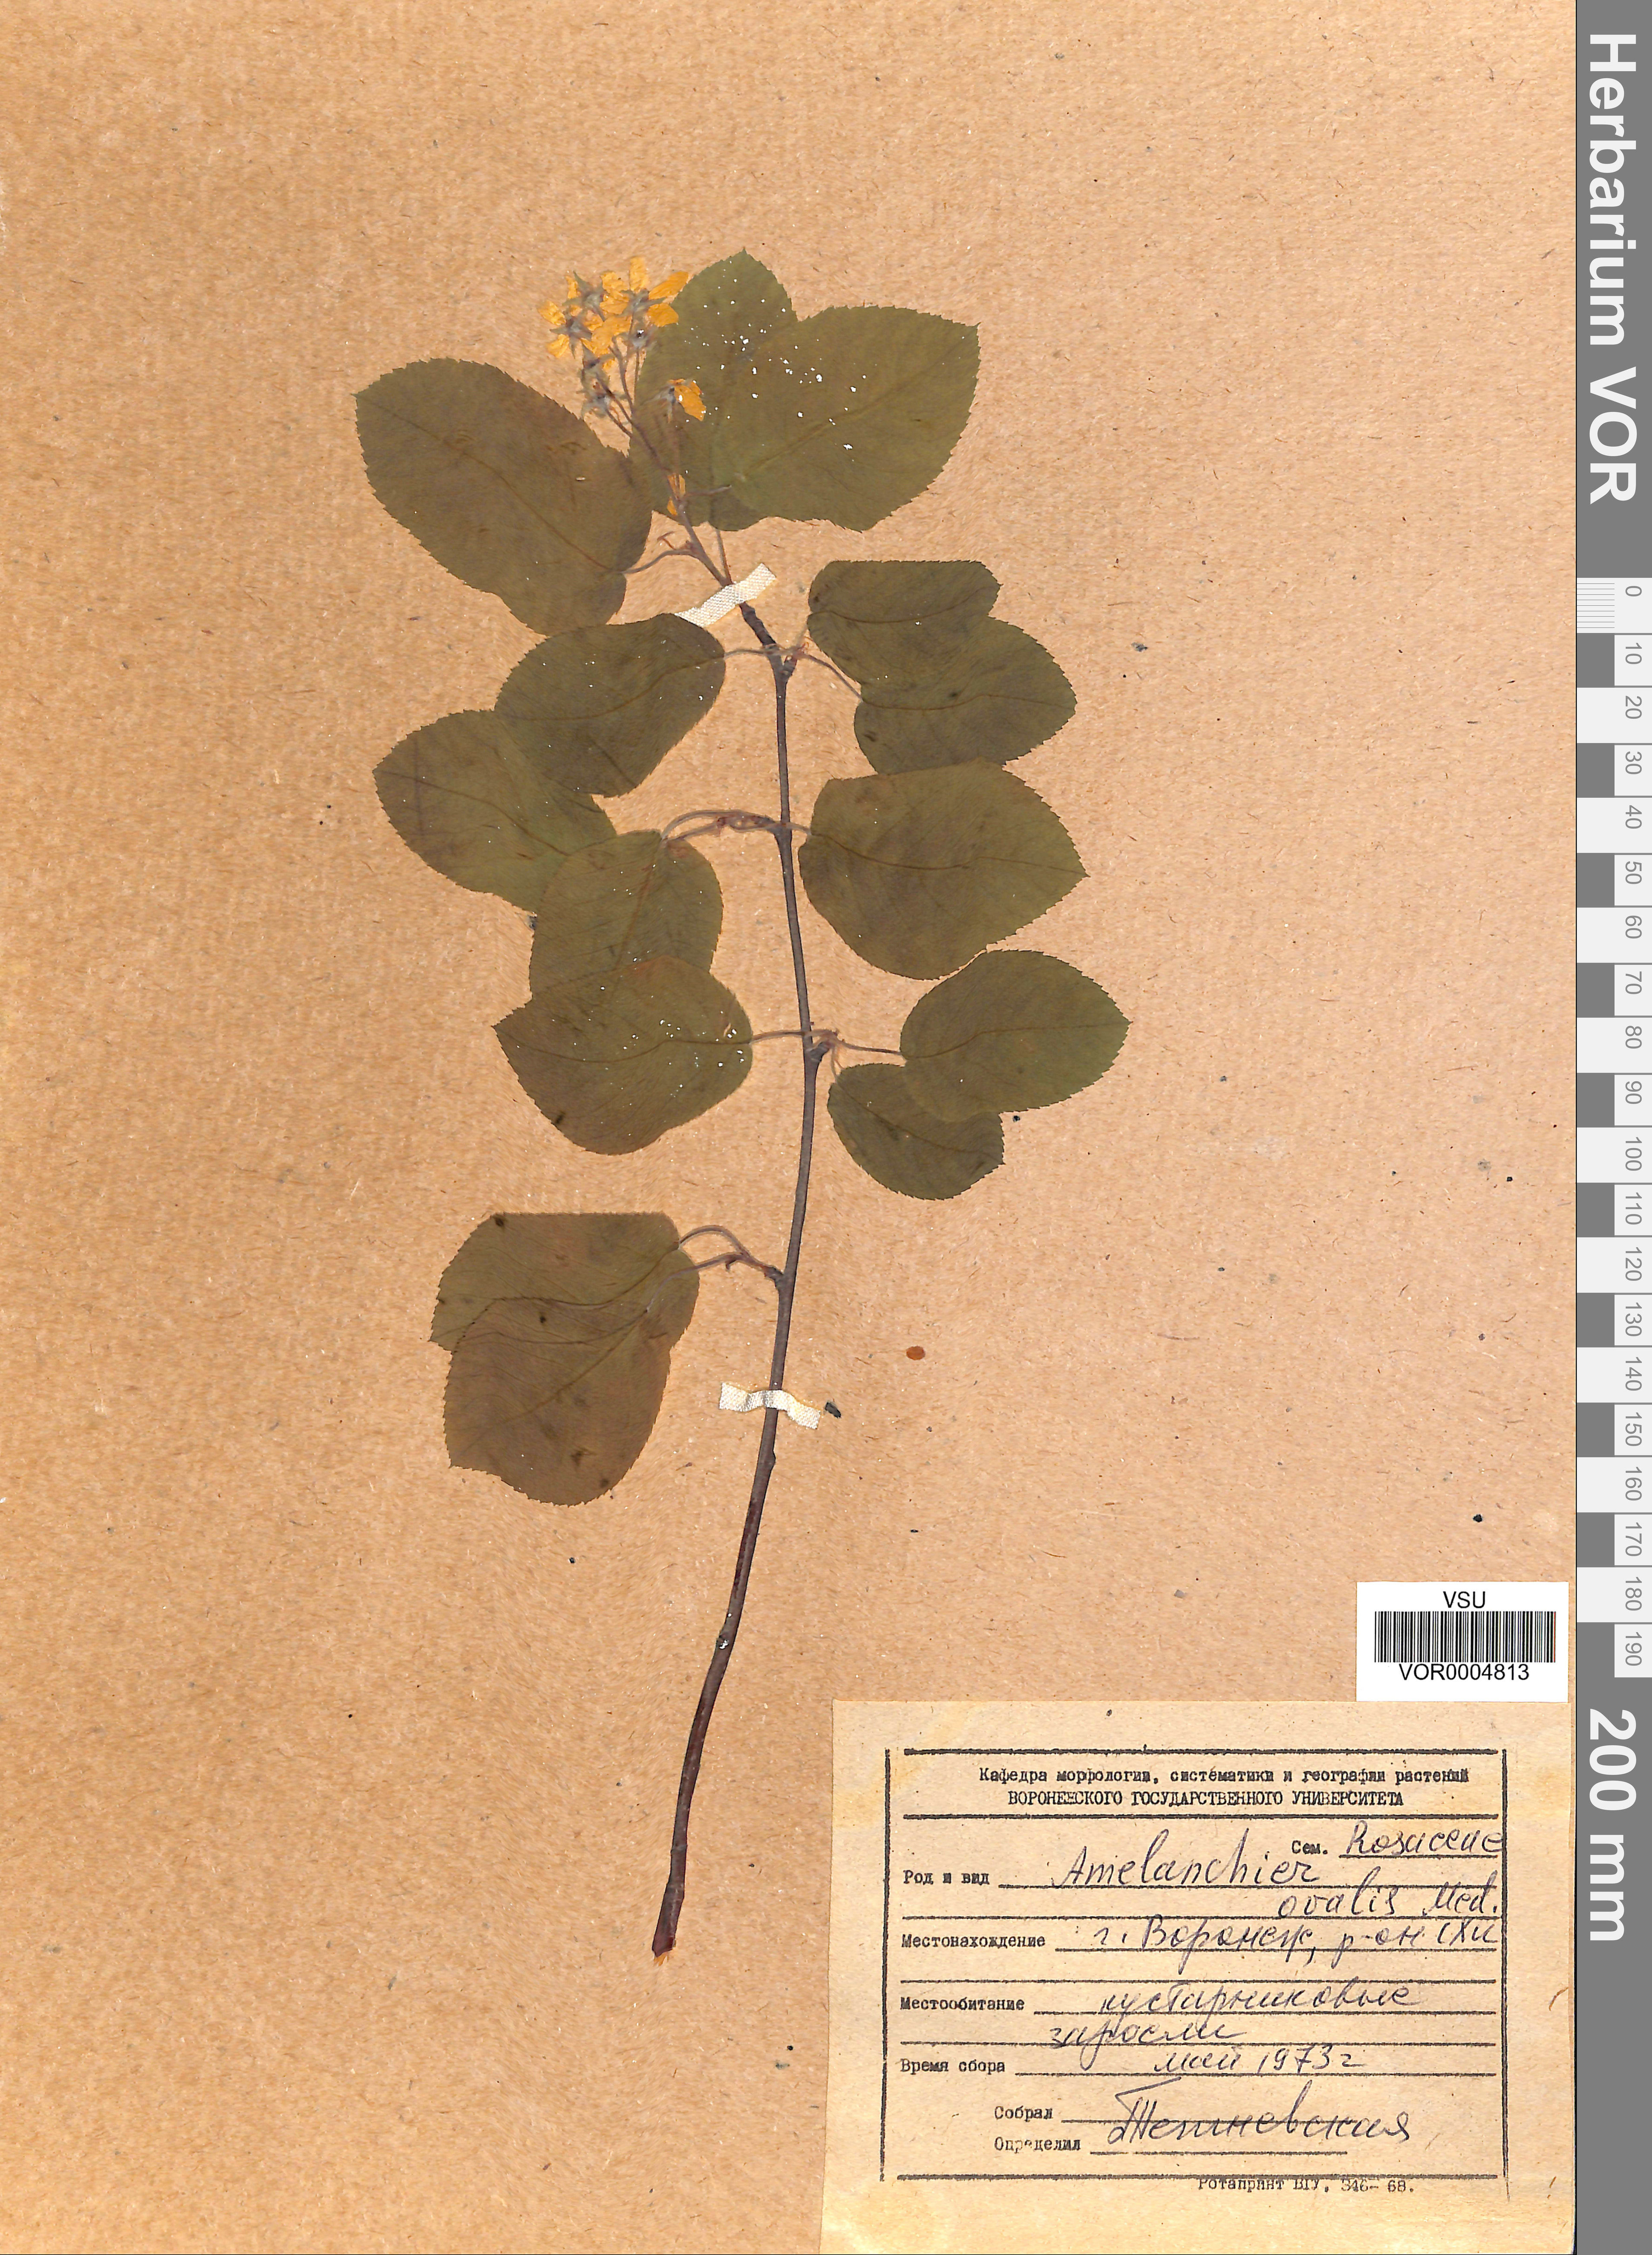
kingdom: Plantae
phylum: Tracheophyta
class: Magnoliopsida
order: Rosales
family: Rosaceae
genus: Amelanchier
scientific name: Amelanchier ovalis
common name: Serviceberry
